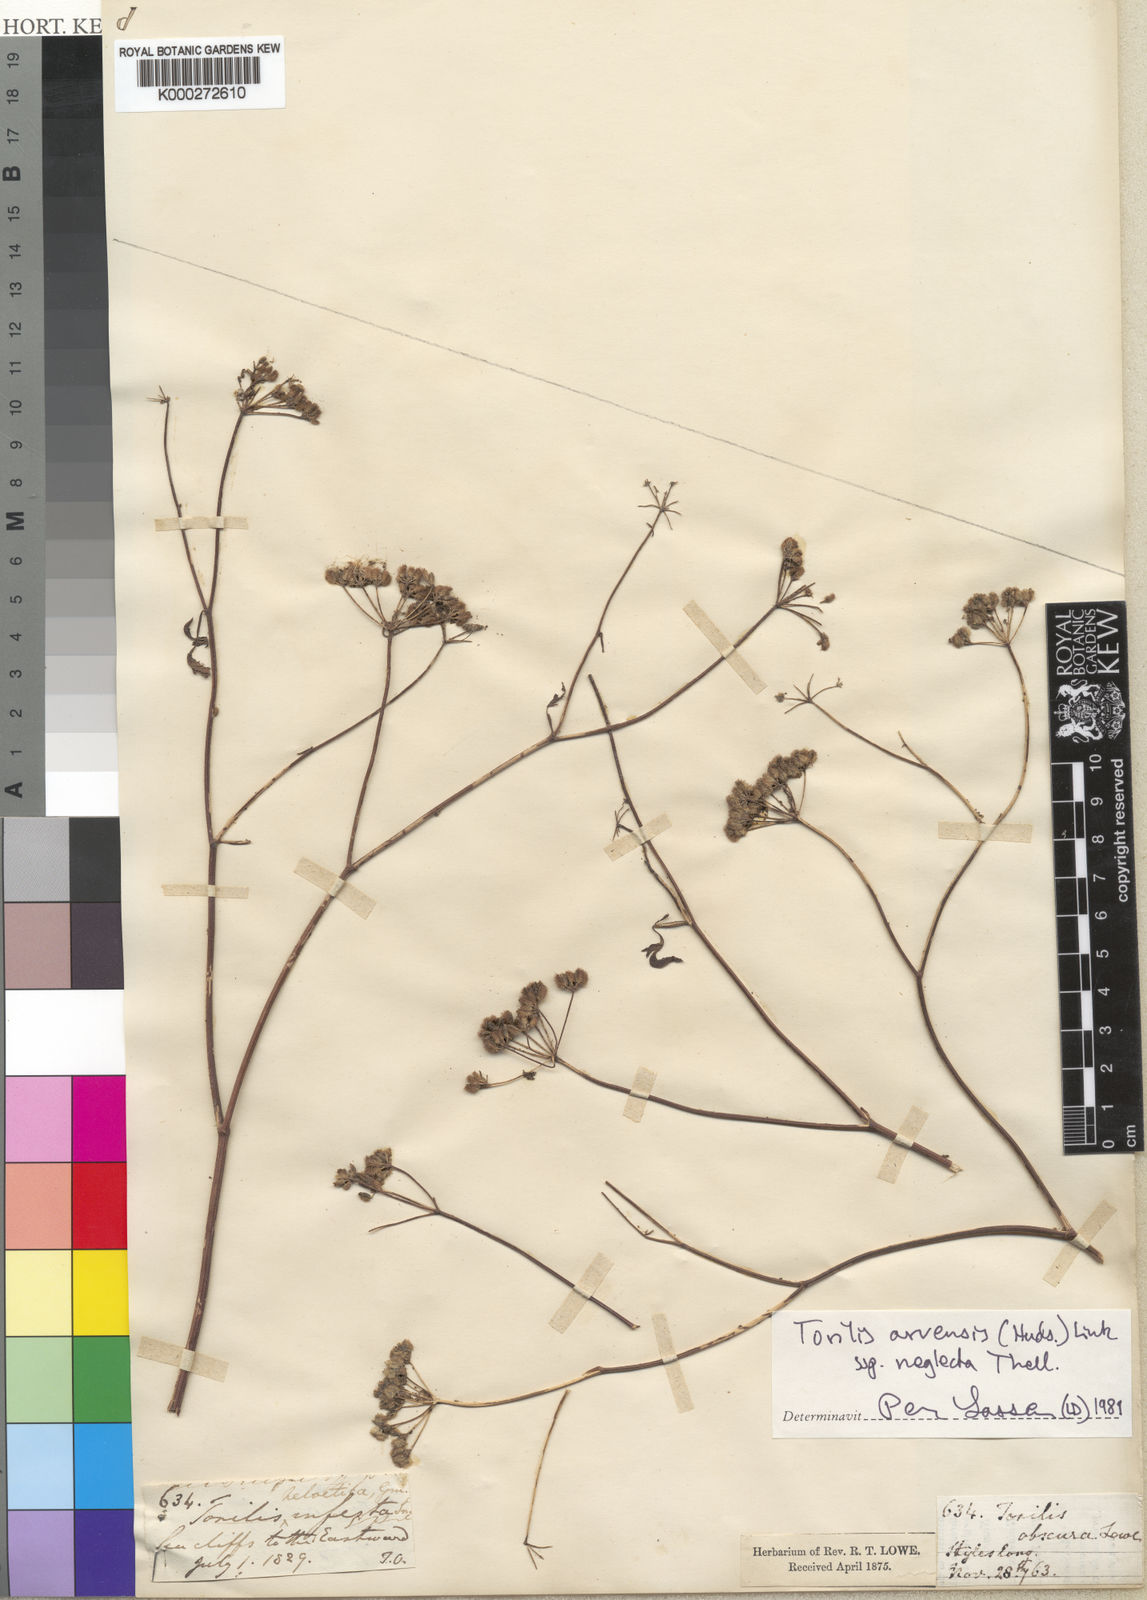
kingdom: Plantae
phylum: Tracheophyta
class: Magnoliopsida
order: Apiales
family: Apiaceae
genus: Torilis
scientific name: Torilis arvensis
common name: Spreading hedge-parsley
